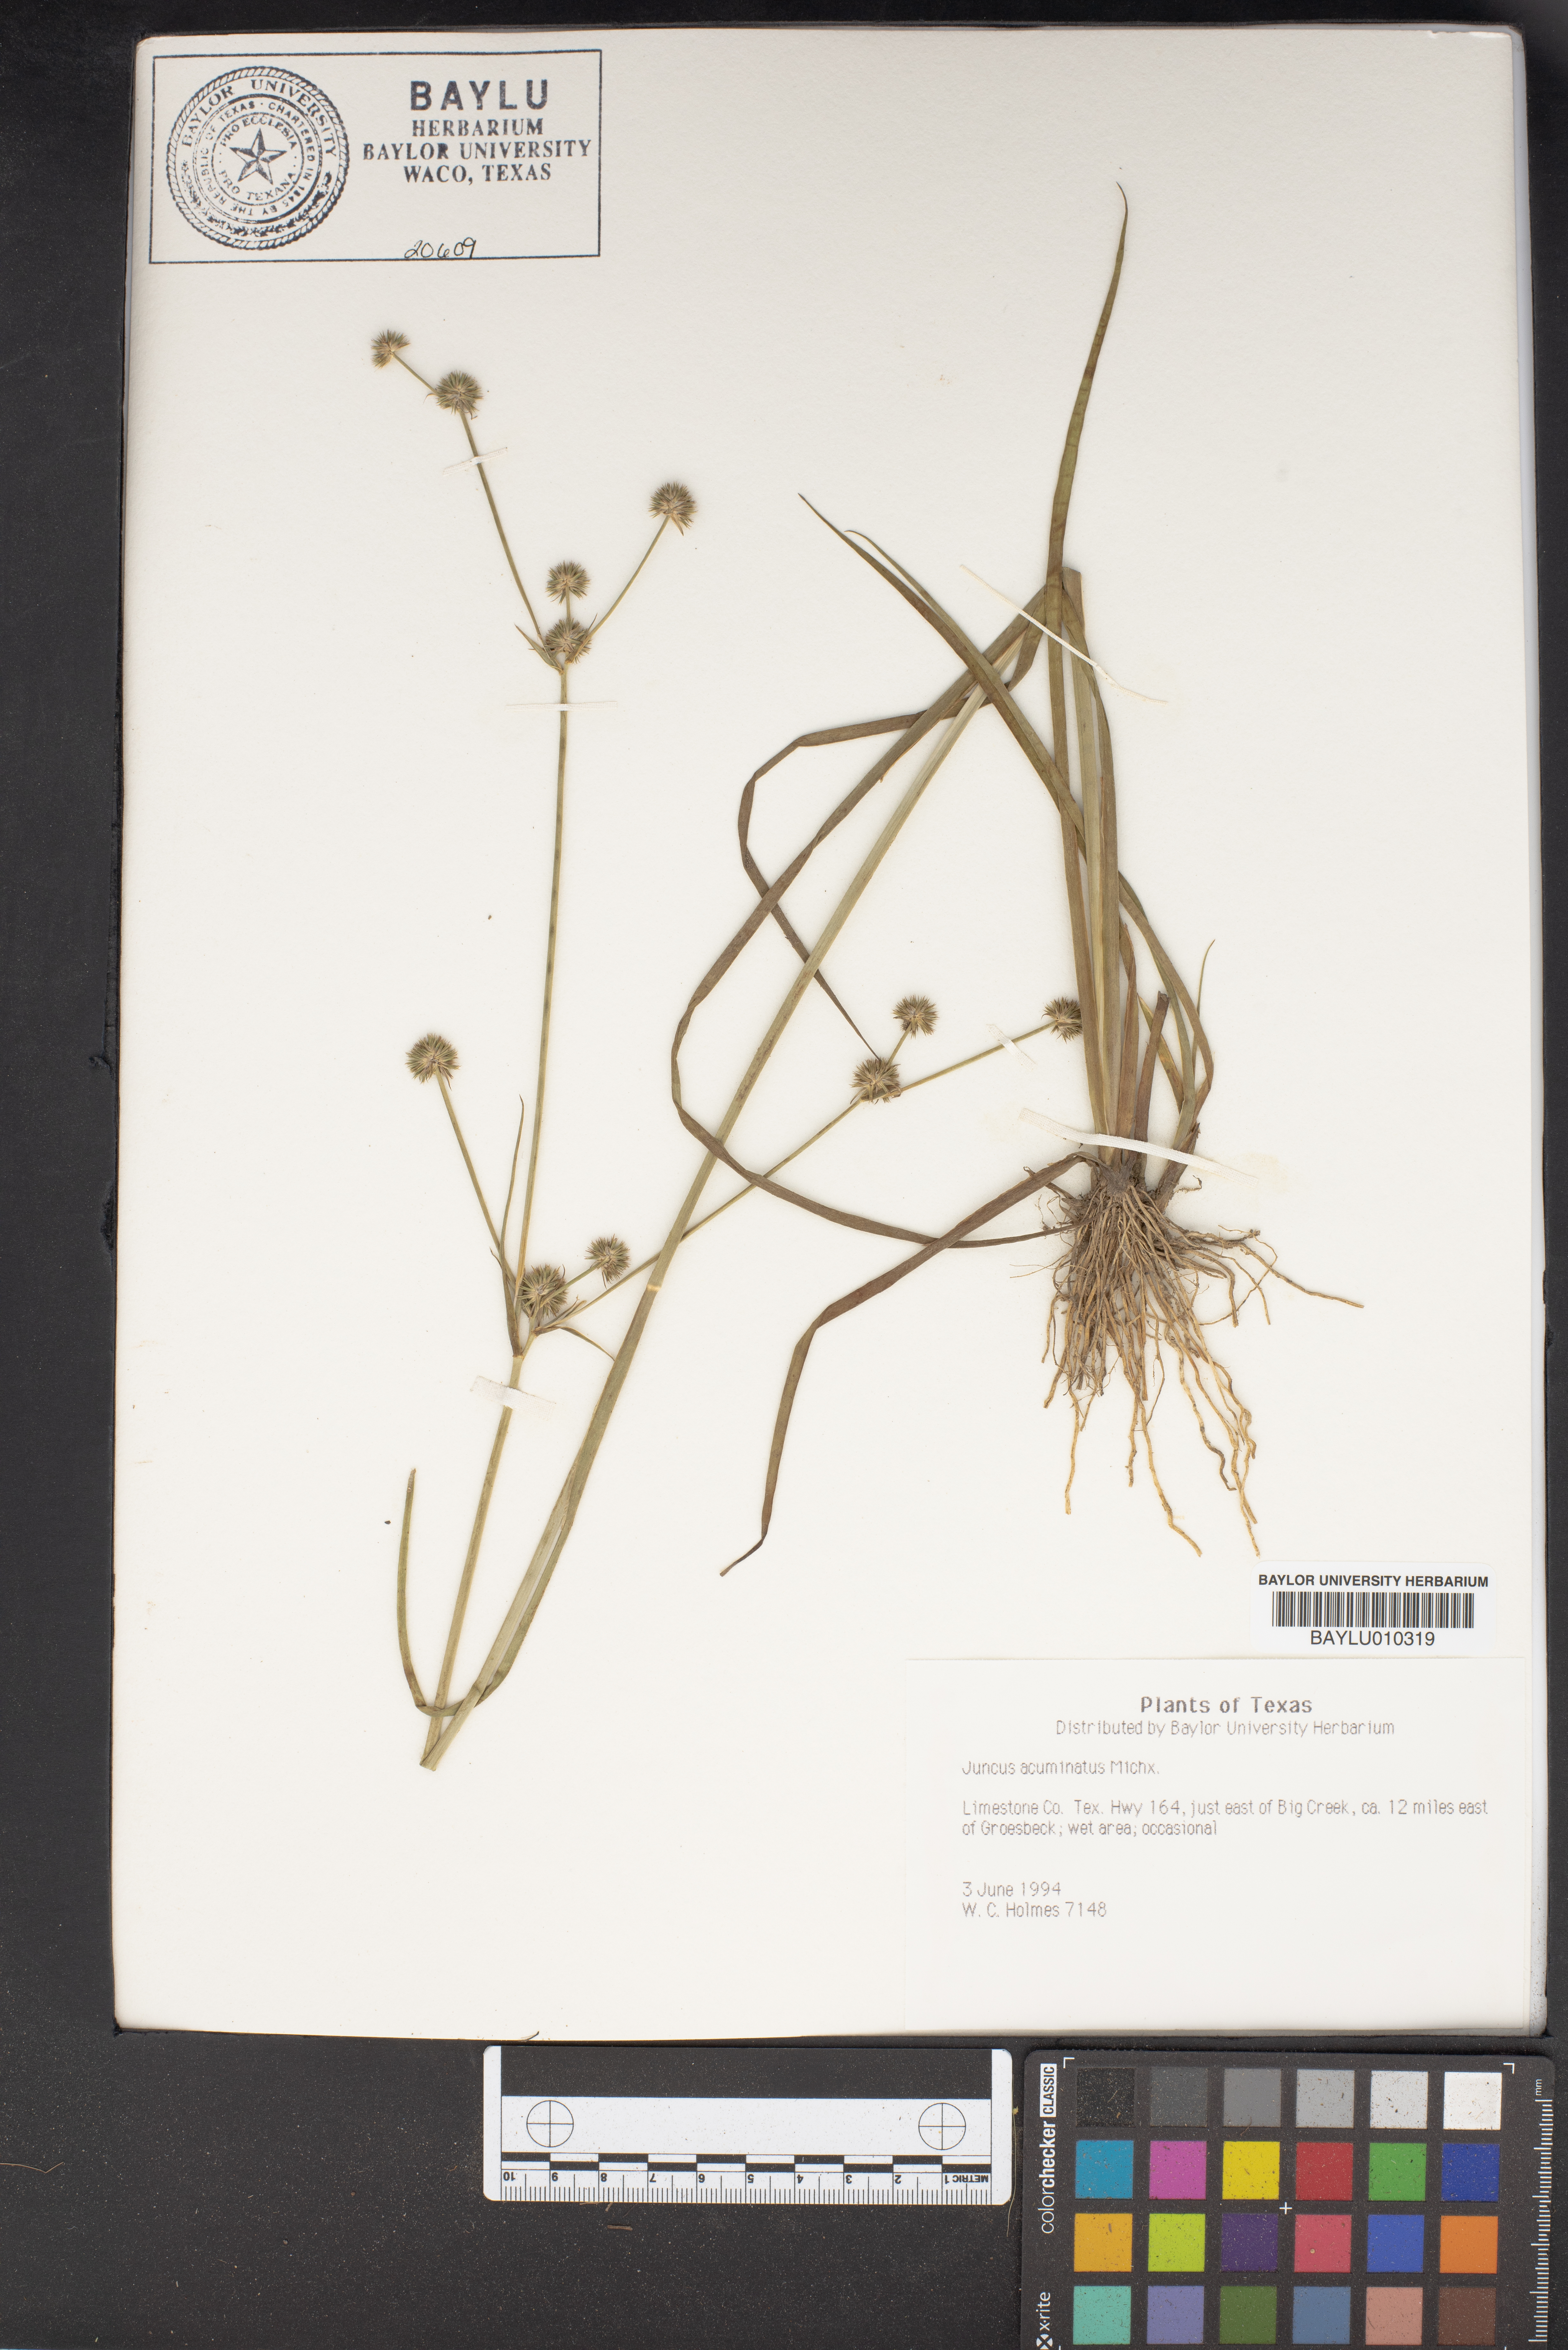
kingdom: Plantae
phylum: Tracheophyta
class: Liliopsida
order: Poales
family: Juncaceae
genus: Juncus
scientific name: Juncus acuminatus
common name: Knotty-leaved rush
